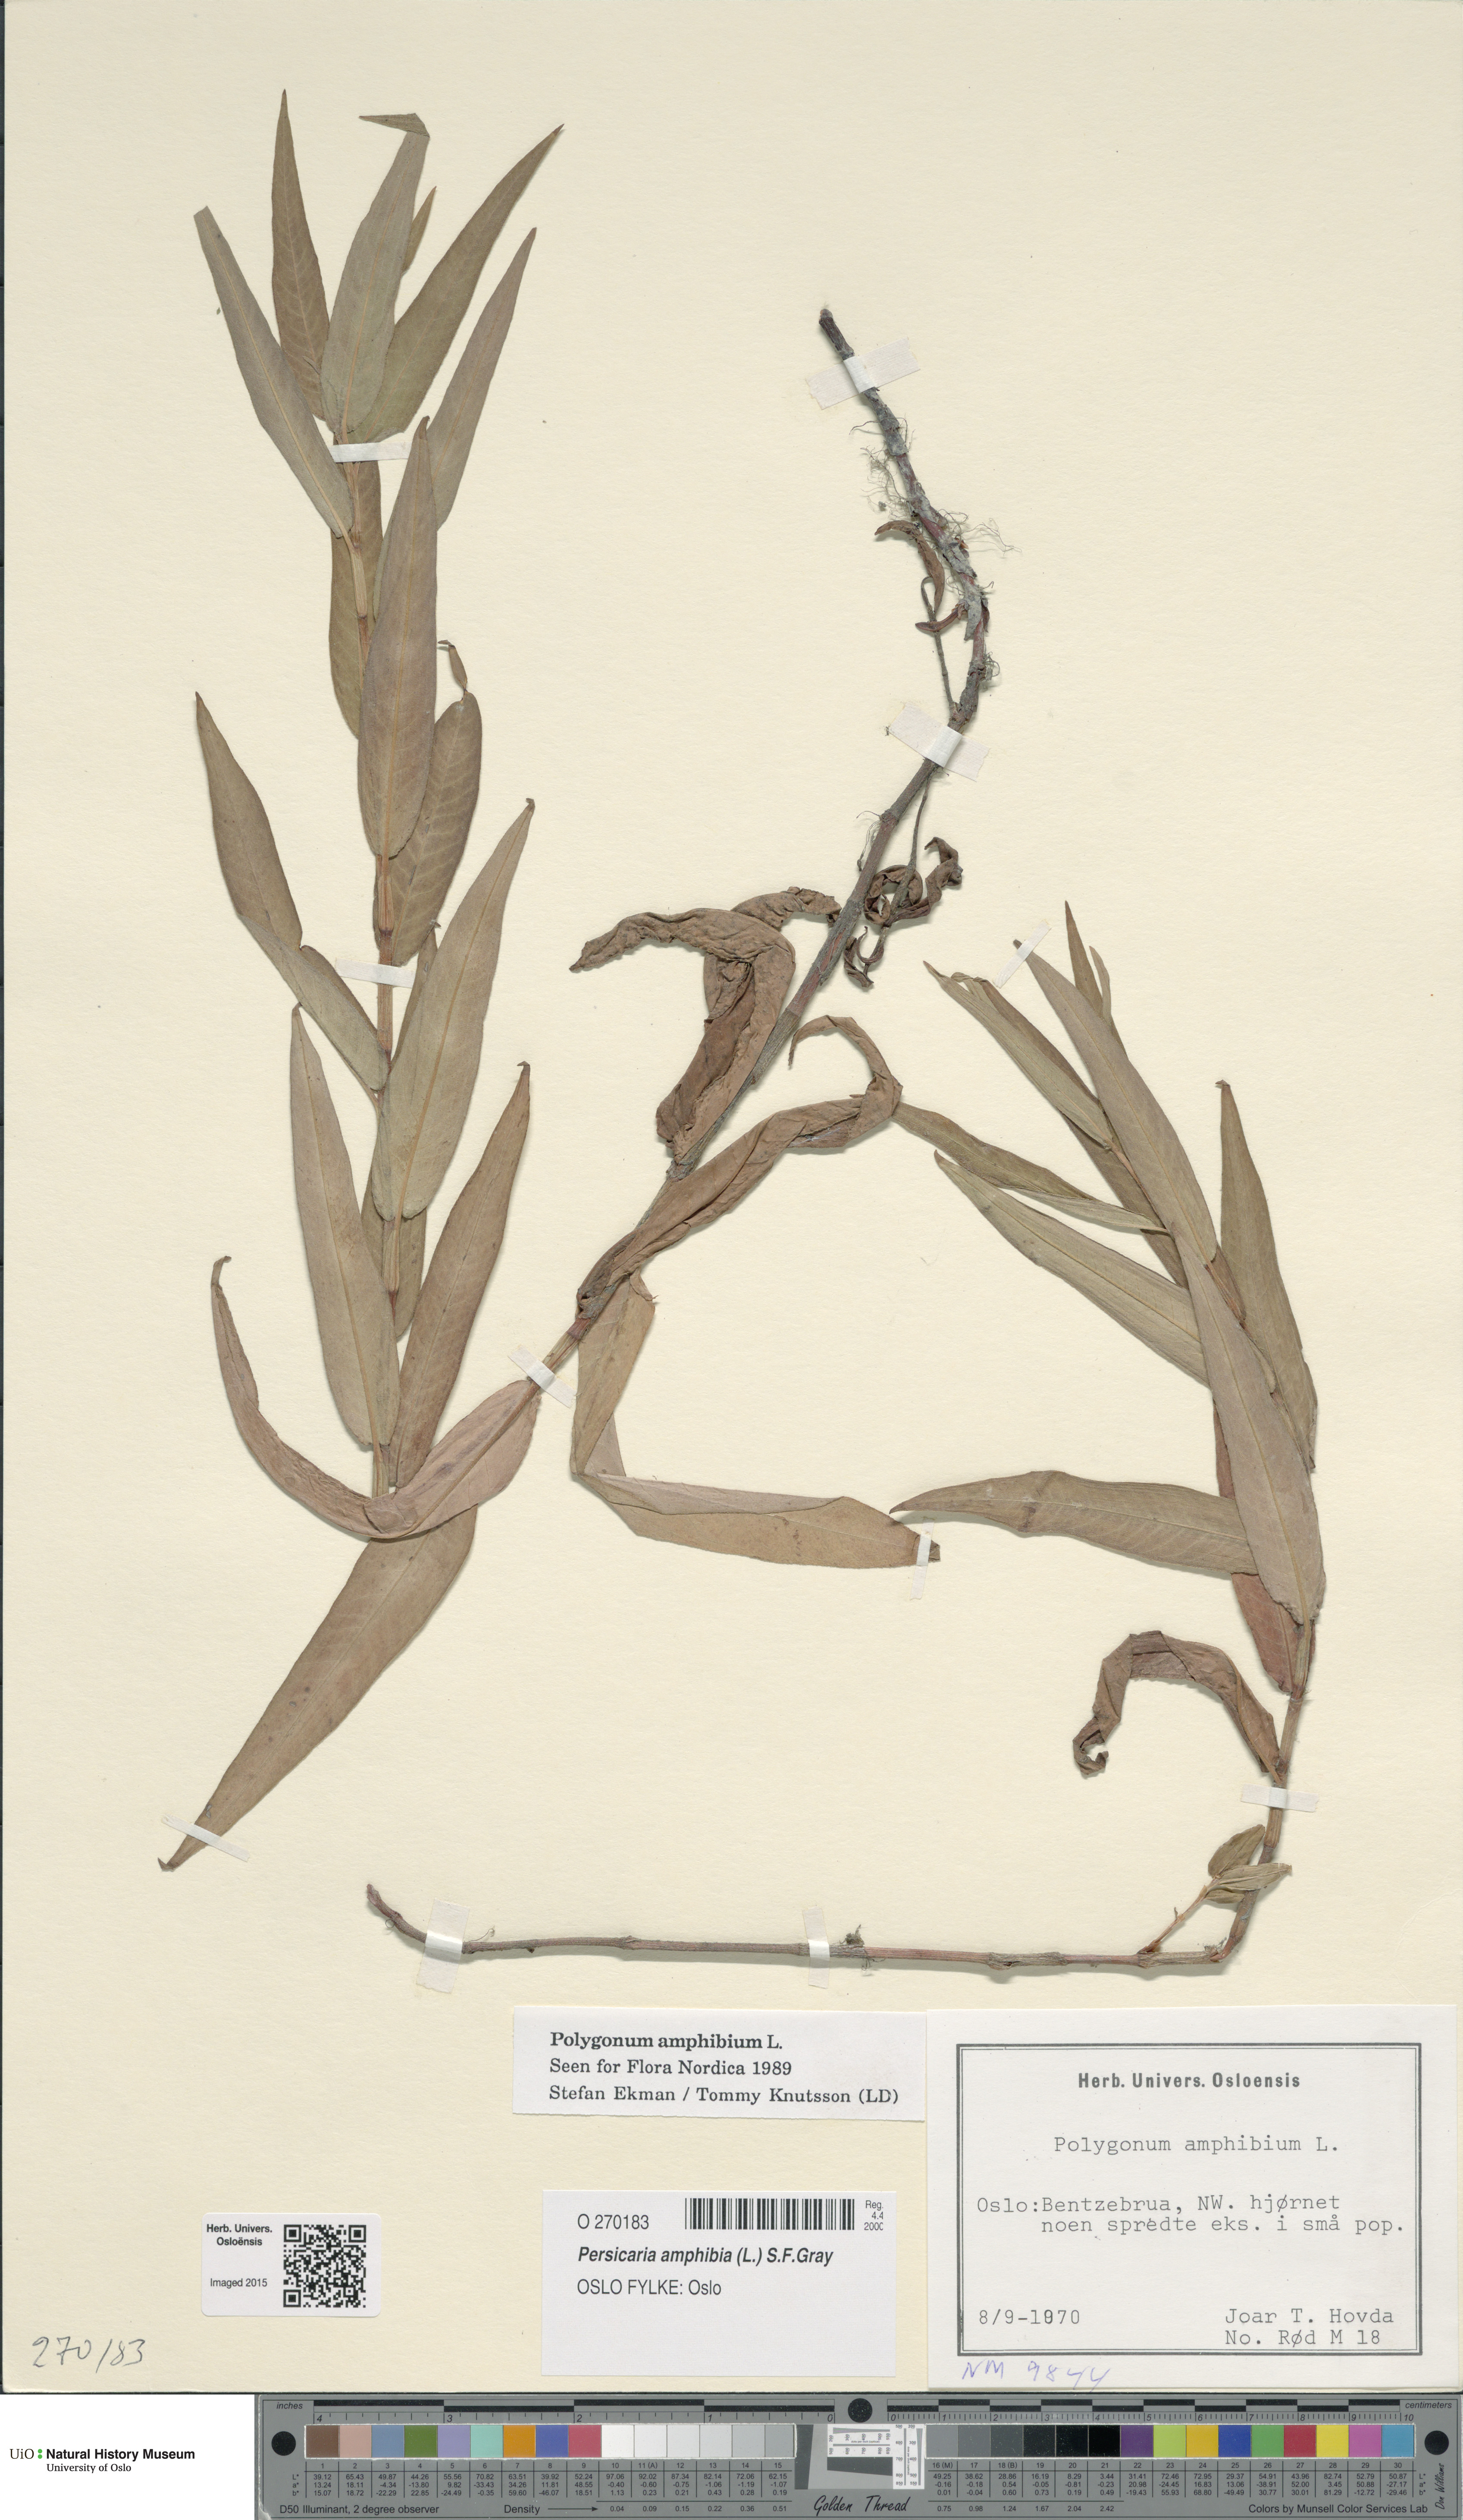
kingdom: Plantae
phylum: Tracheophyta
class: Magnoliopsida
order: Caryophyllales
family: Polygonaceae
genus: Persicaria
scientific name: Persicaria amphibia
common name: Amphibious bistort
